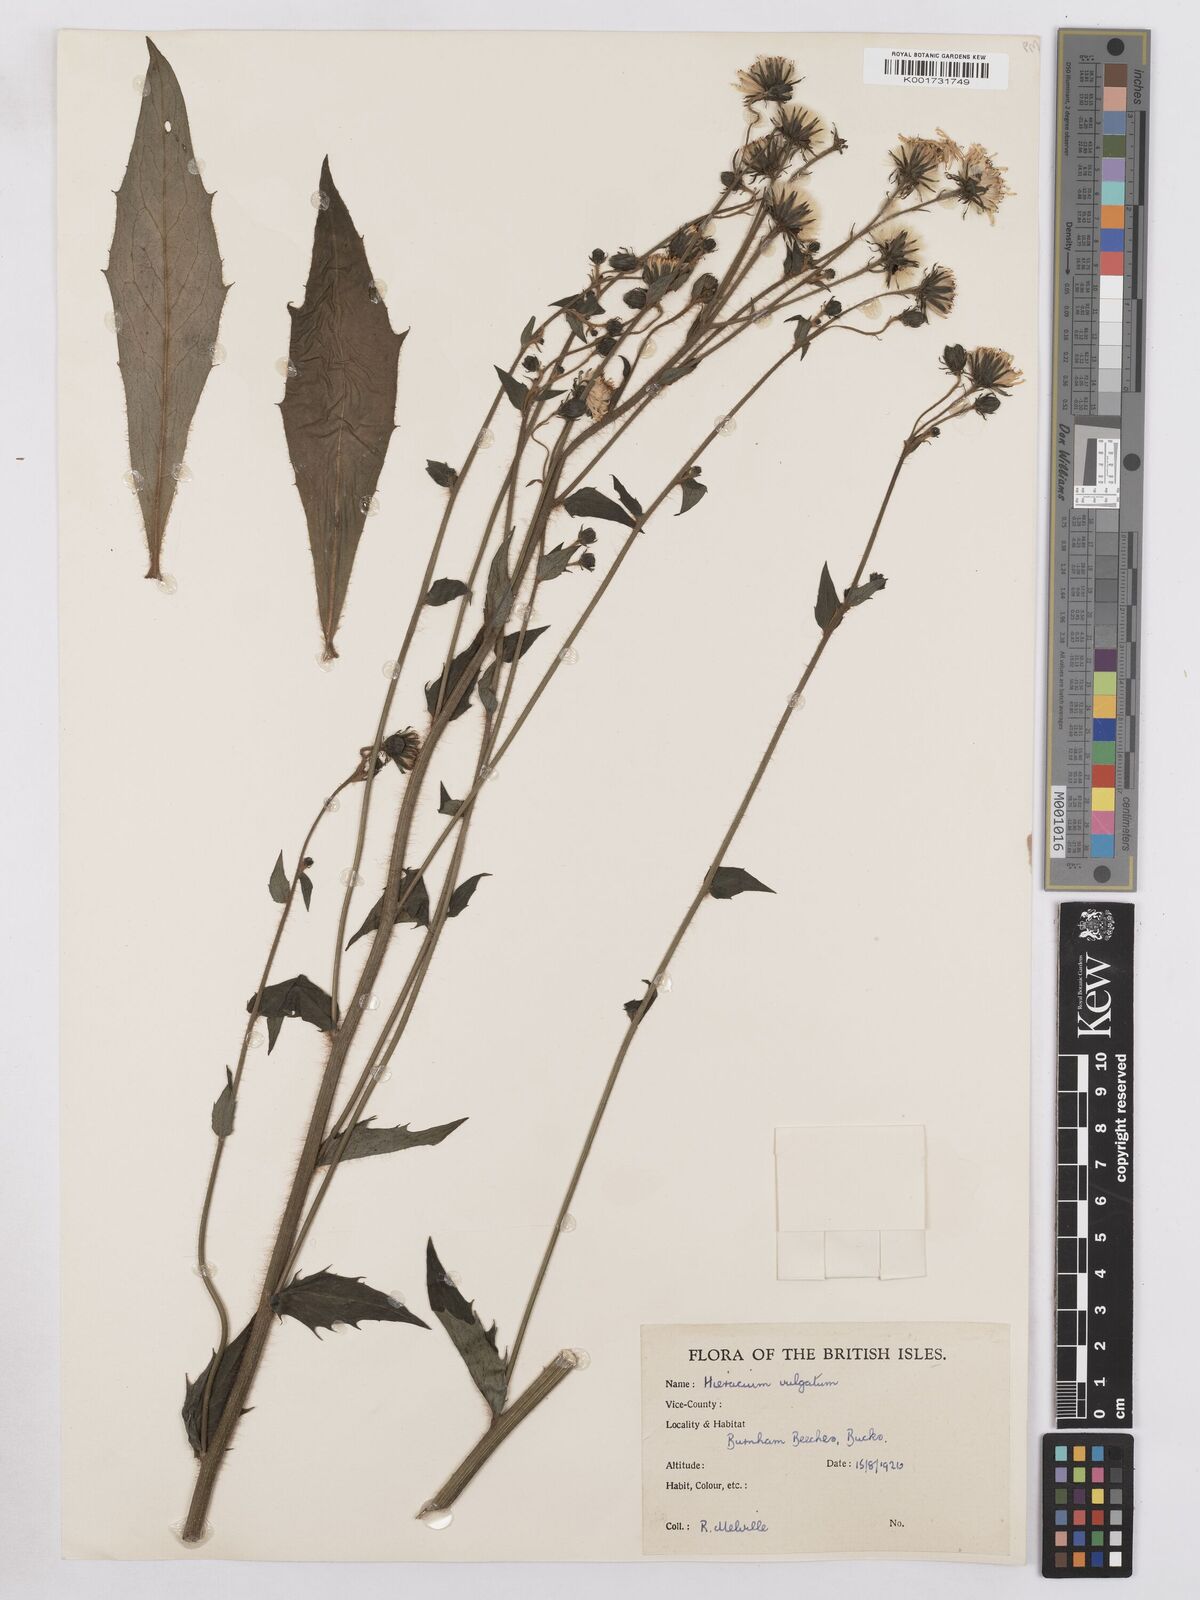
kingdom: Plantae
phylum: Tracheophyta
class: Magnoliopsida
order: Asterales
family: Asteraceae
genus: Hieracium
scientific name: Hieracium
